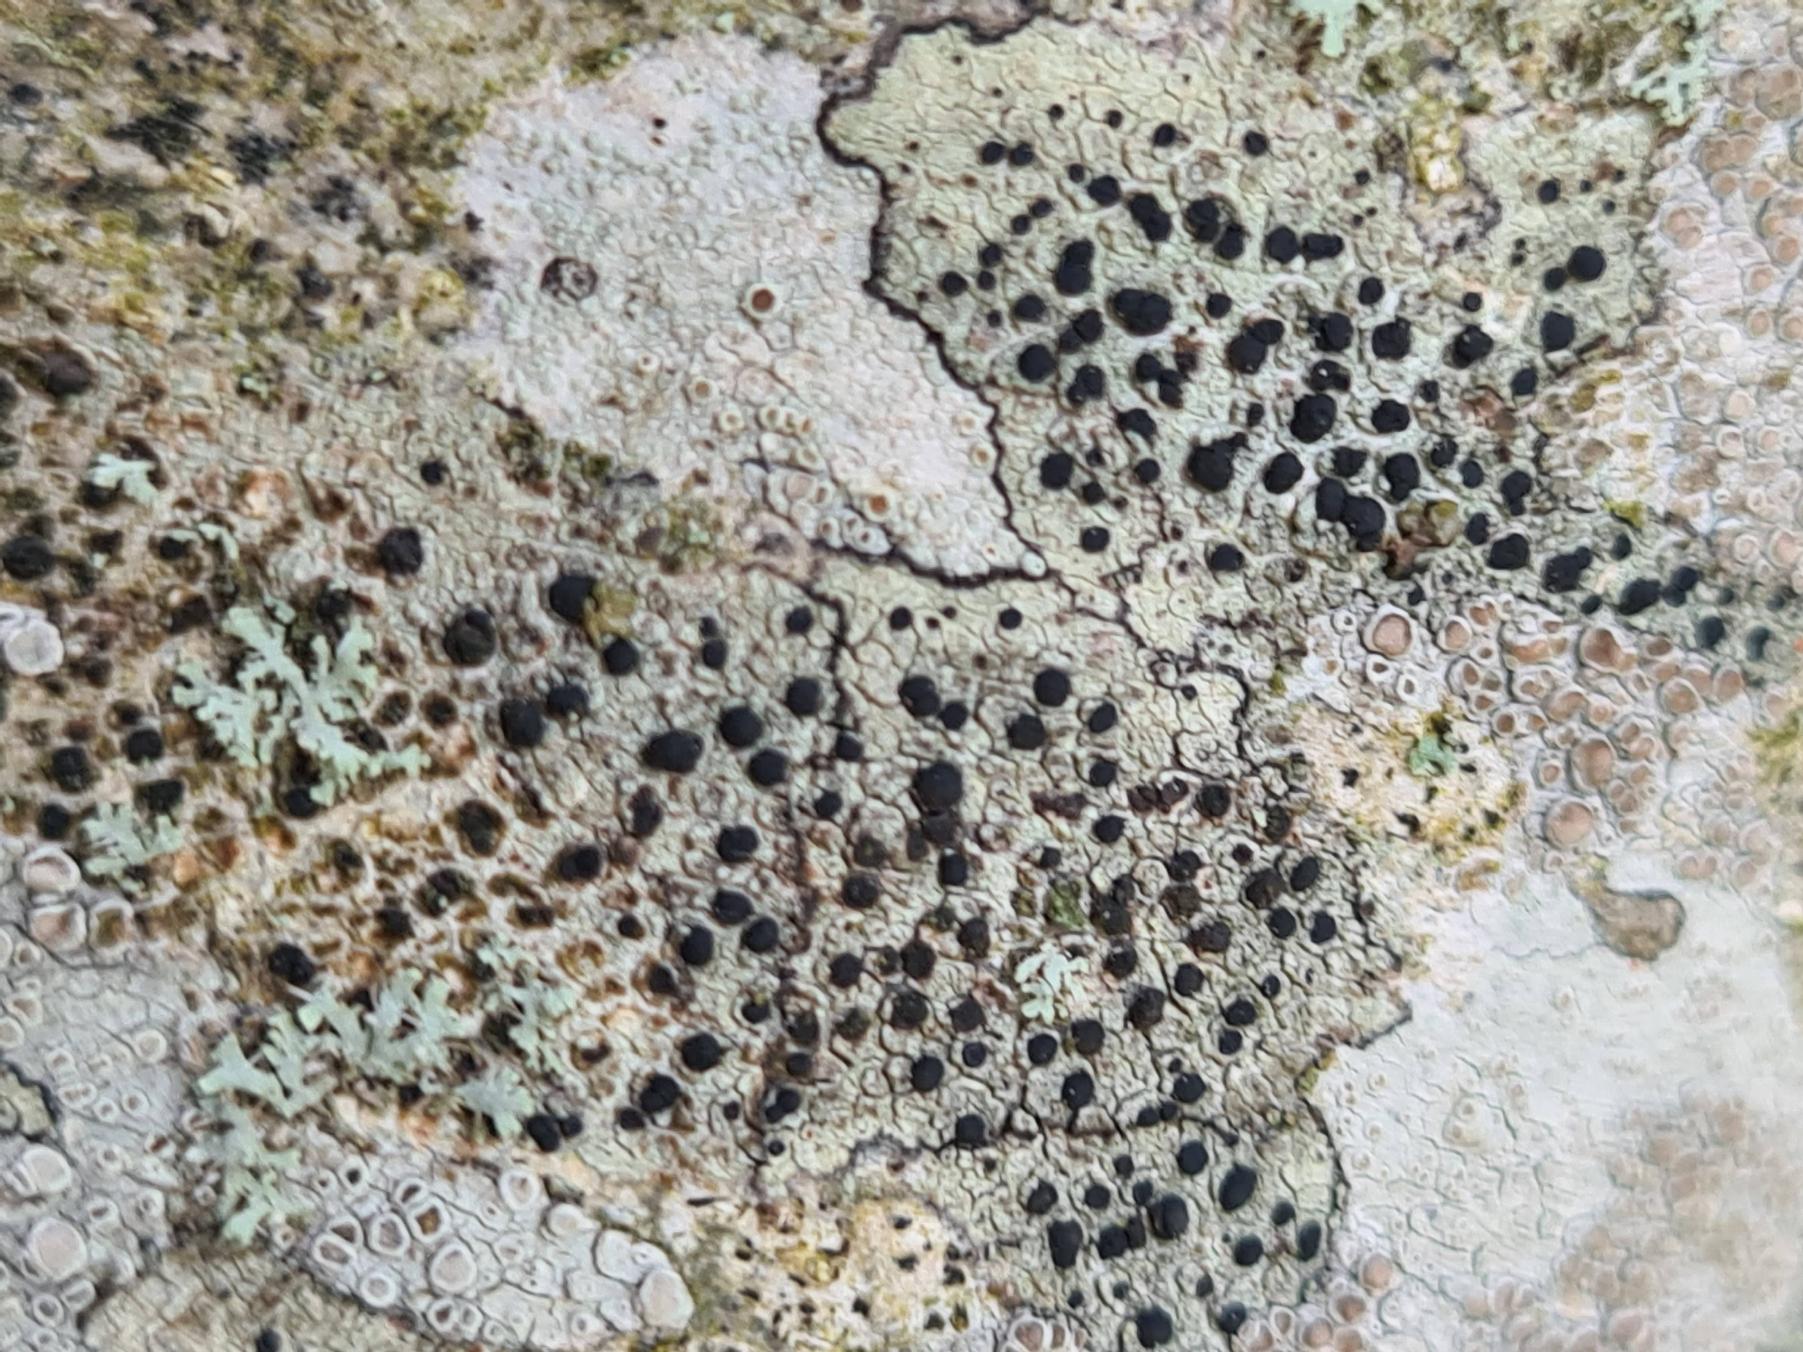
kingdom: Fungi
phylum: Ascomycota
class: Lecanoromycetes
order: Lecanorales
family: Lecanoraceae
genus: Lecidella
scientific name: Lecidella elaeochroma
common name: Grågrøn skivelav
